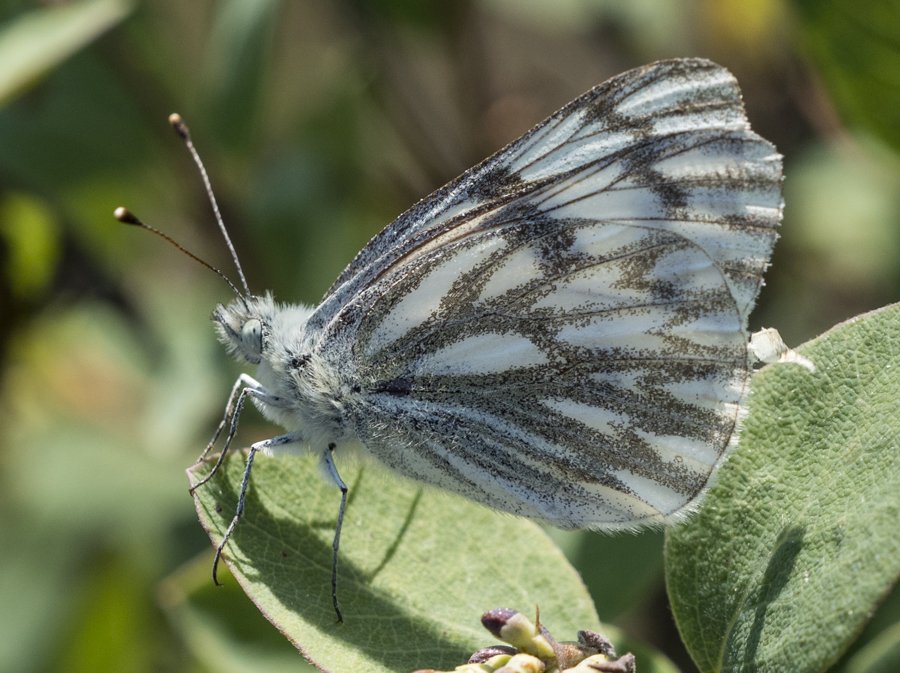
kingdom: Animalia
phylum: Arthropoda
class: Insecta
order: Lepidoptera
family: Pieridae
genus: Pontia
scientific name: Pontia occidentalis
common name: Western White
